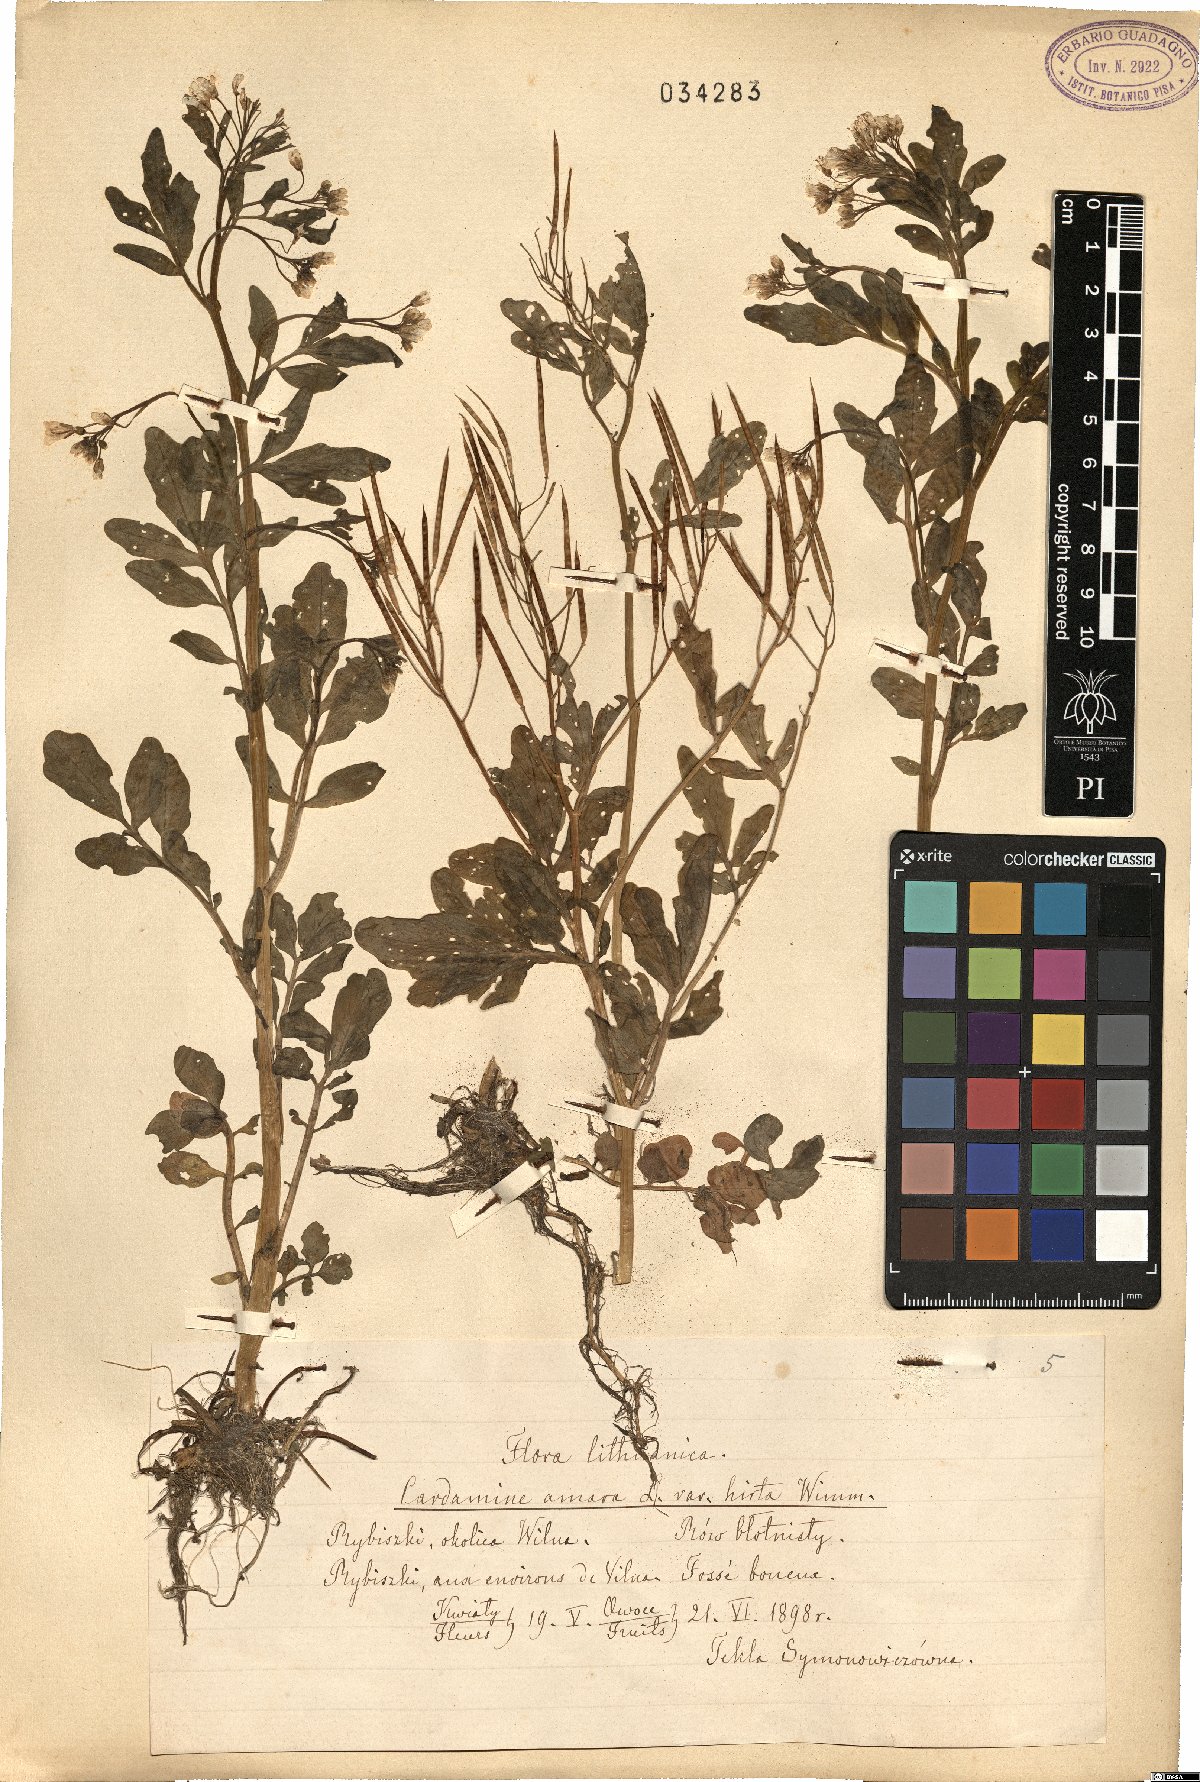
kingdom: Plantae
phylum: Tracheophyta
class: Magnoliopsida
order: Brassicales
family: Brassicaceae
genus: Cardamine
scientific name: Cardamine amara
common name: Large bitter-cress
